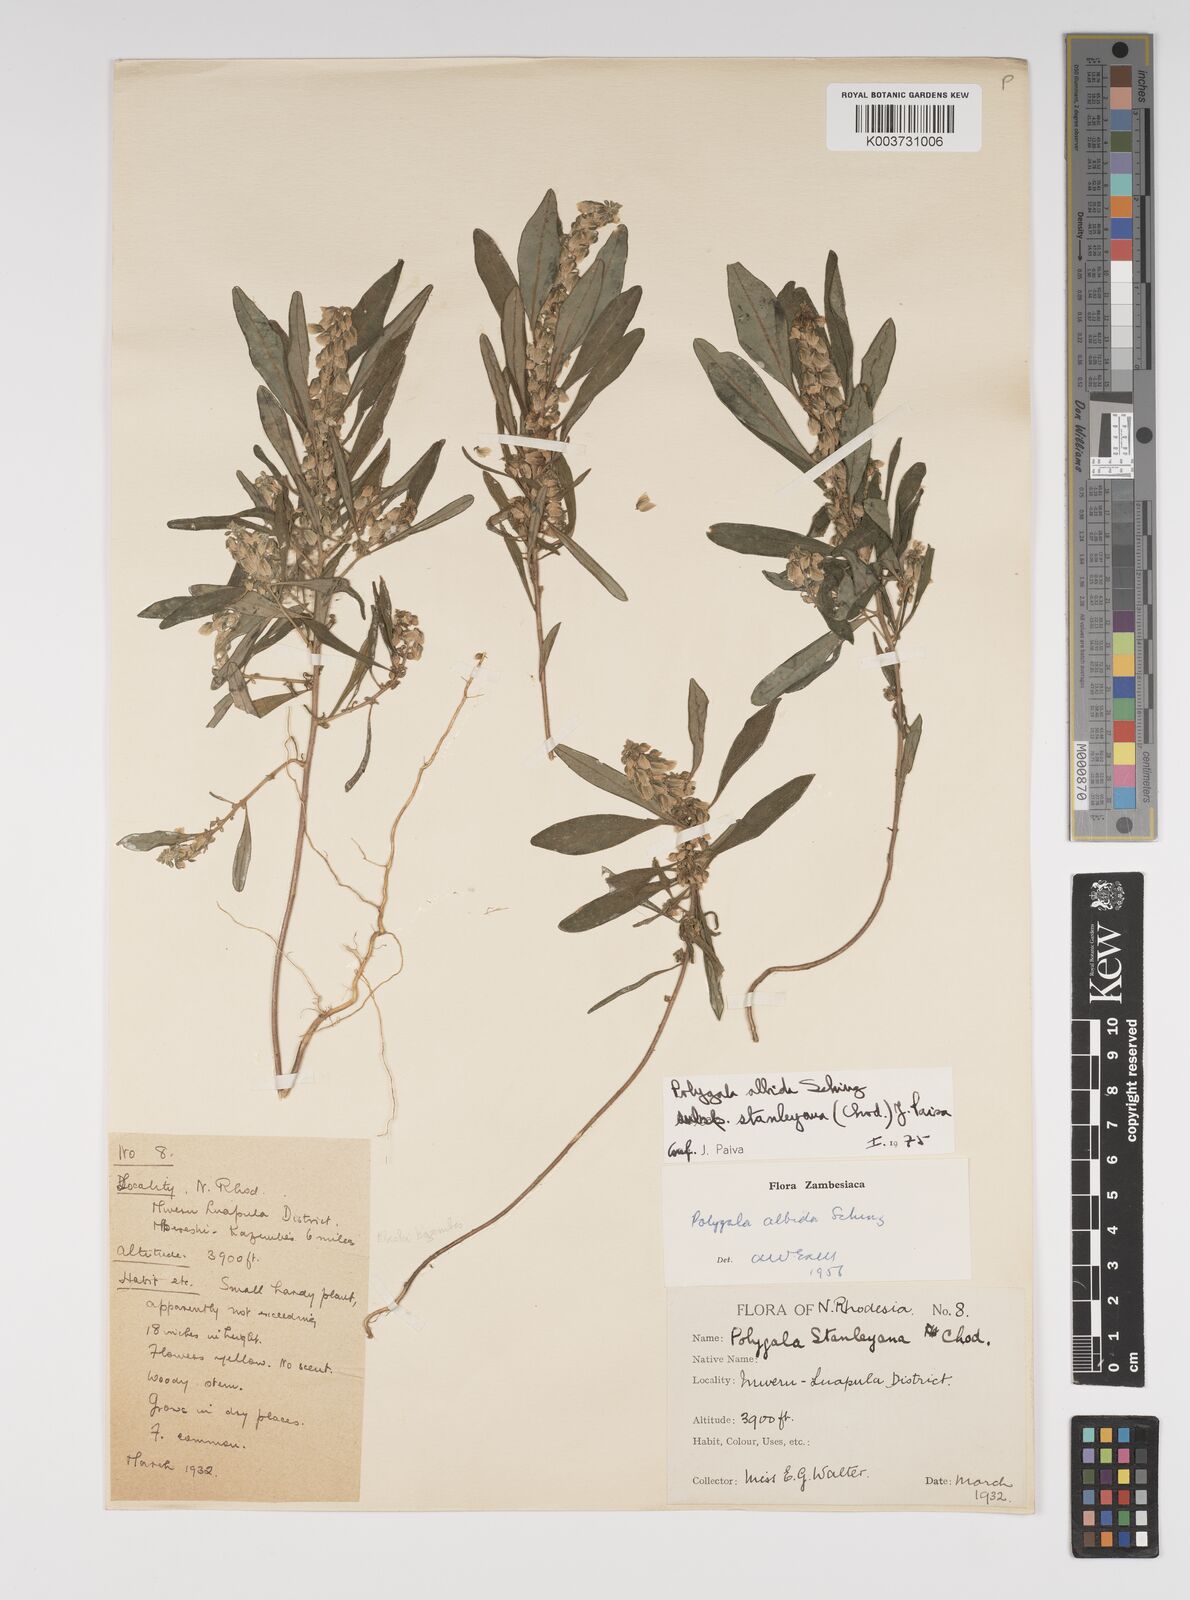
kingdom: Plantae
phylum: Tracheophyta
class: Magnoliopsida
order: Fabales
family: Polygalaceae
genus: Polygala
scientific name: Polygala albida
